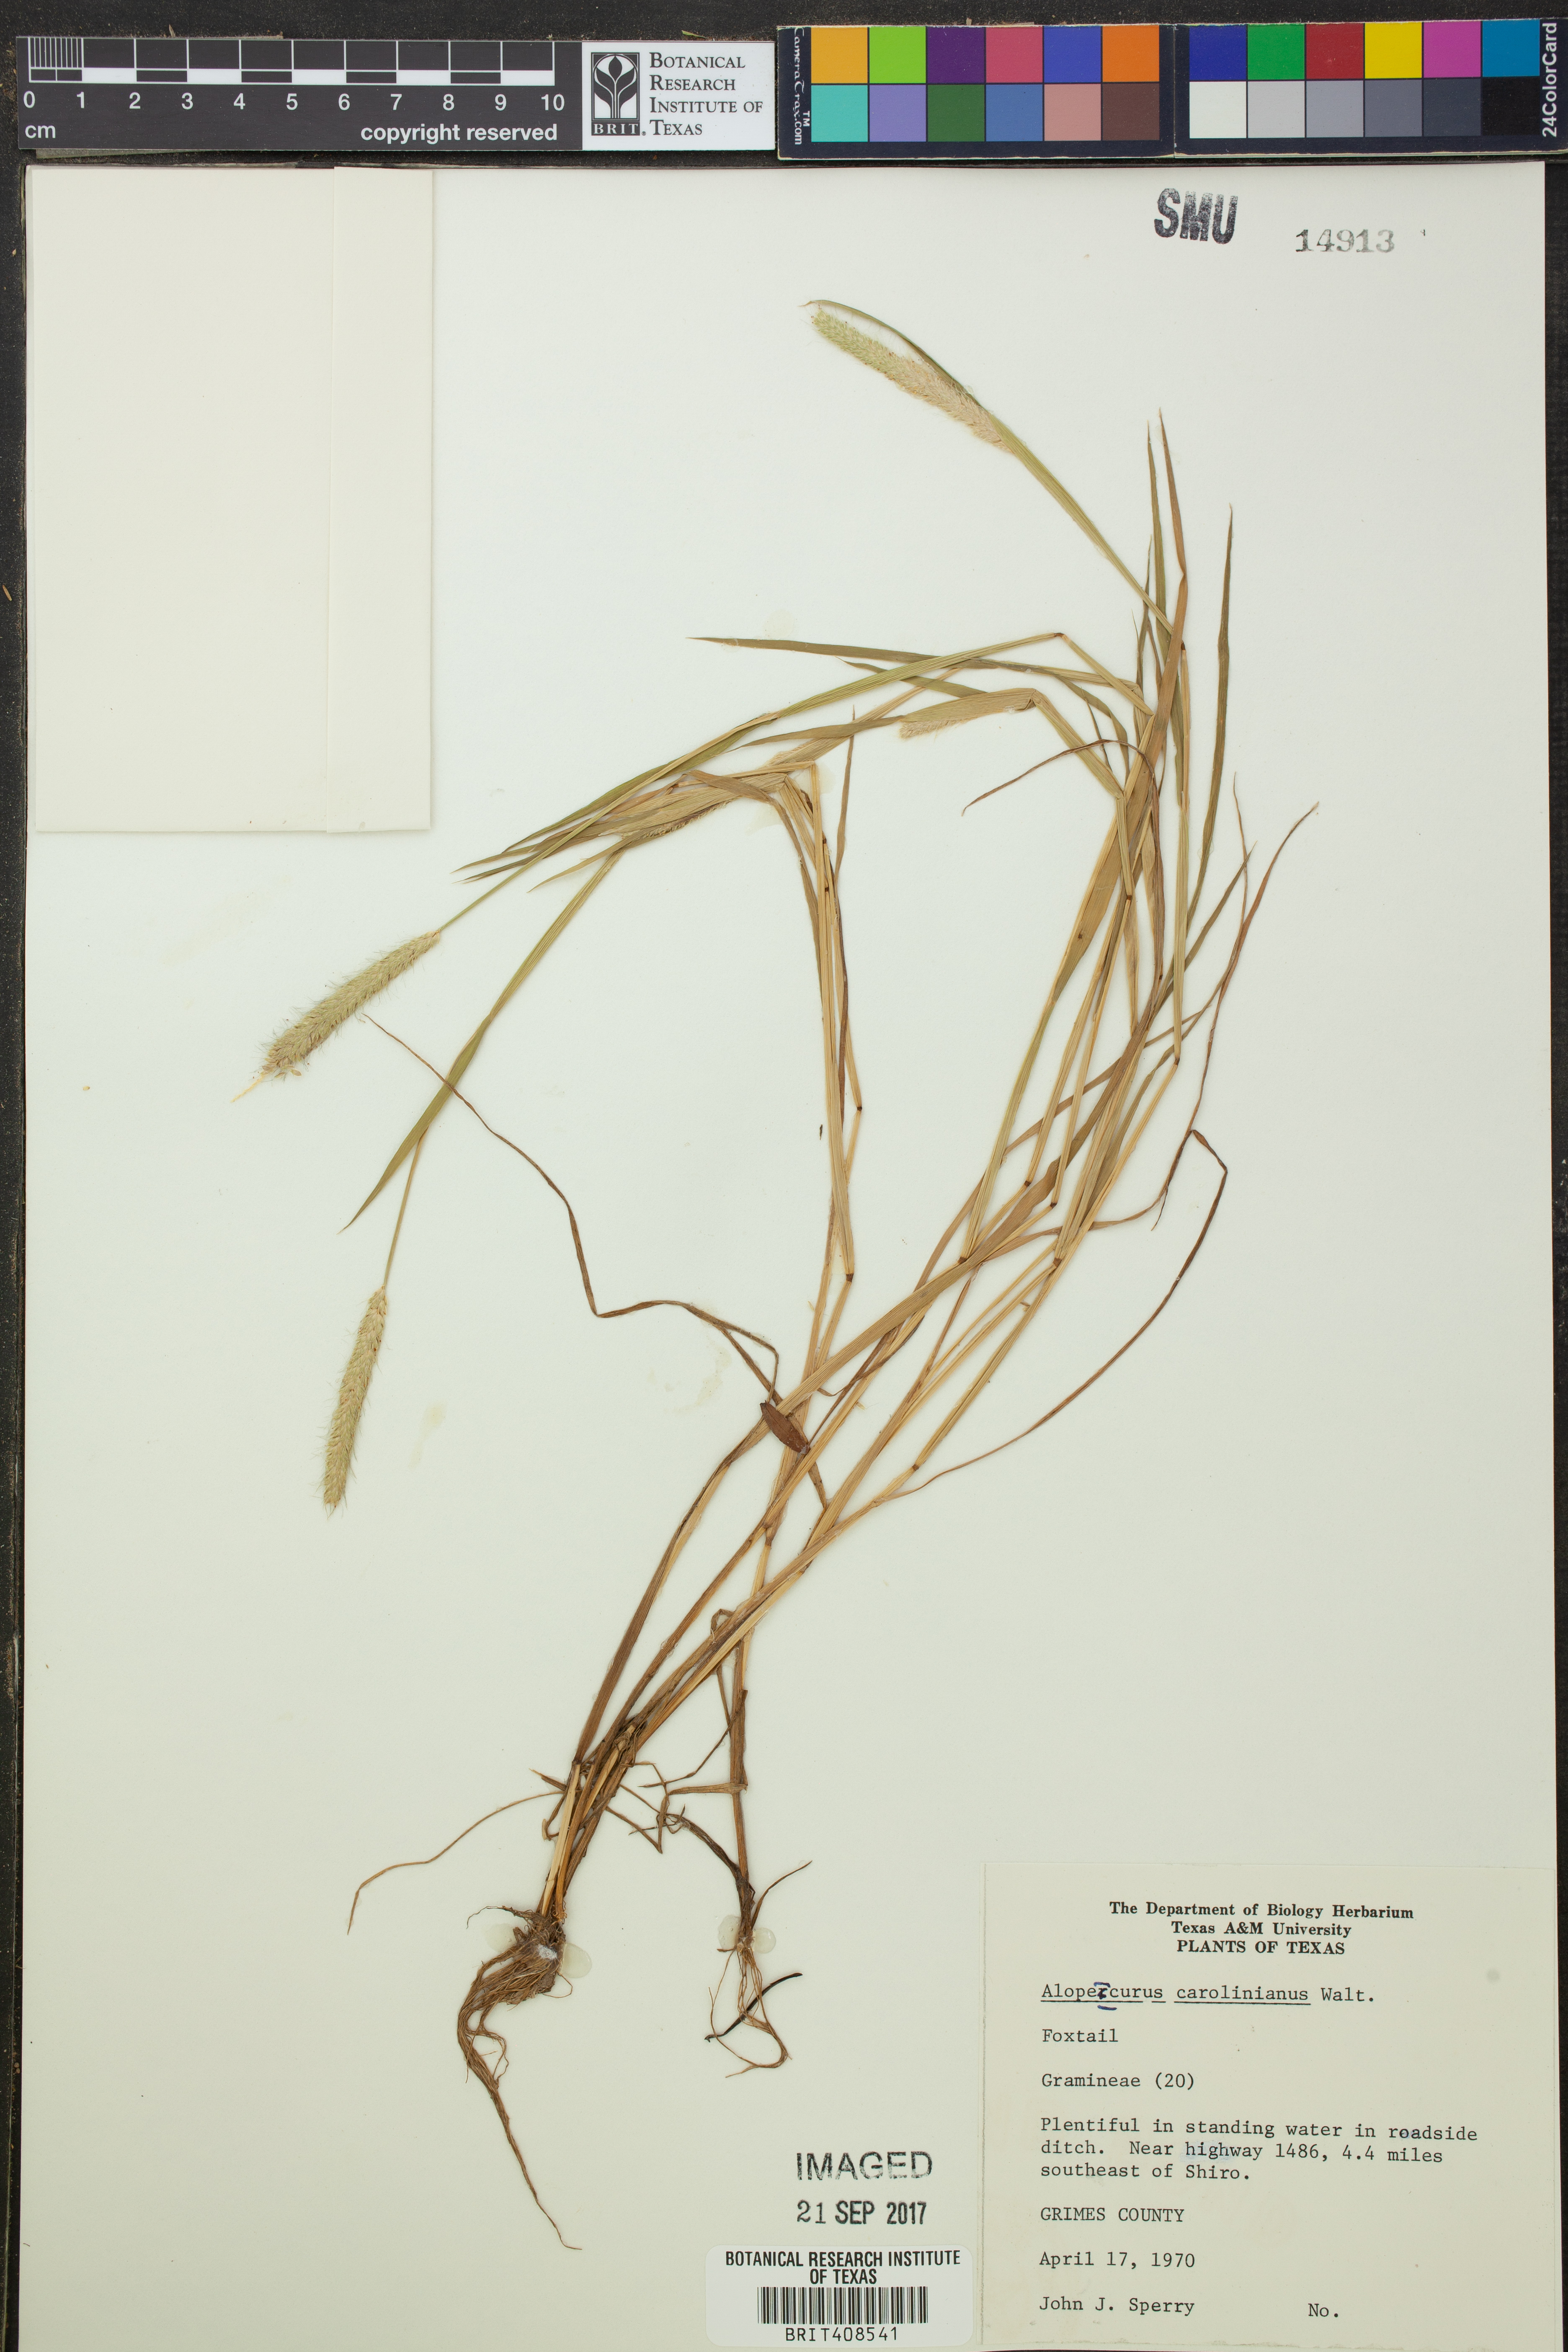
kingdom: Plantae
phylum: Tracheophyta
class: Liliopsida
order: Poales
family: Poaceae
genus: Alopecurus
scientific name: Alopecurus carolinianus
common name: Tufted foxtail
